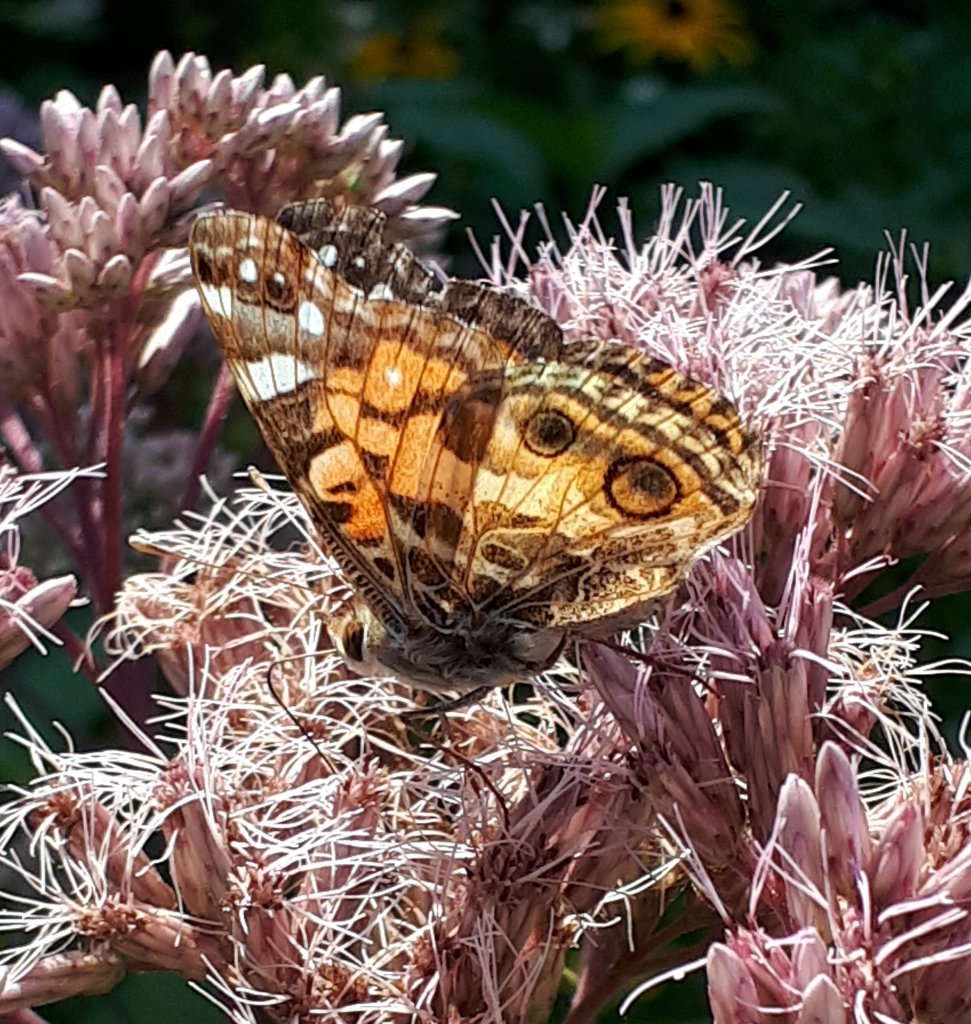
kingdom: Animalia
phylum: Arthropoda
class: Insecta
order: Lepidoptera
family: Nymphalidae
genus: Vanessa
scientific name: Vanessa virginiensis
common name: American Lady
